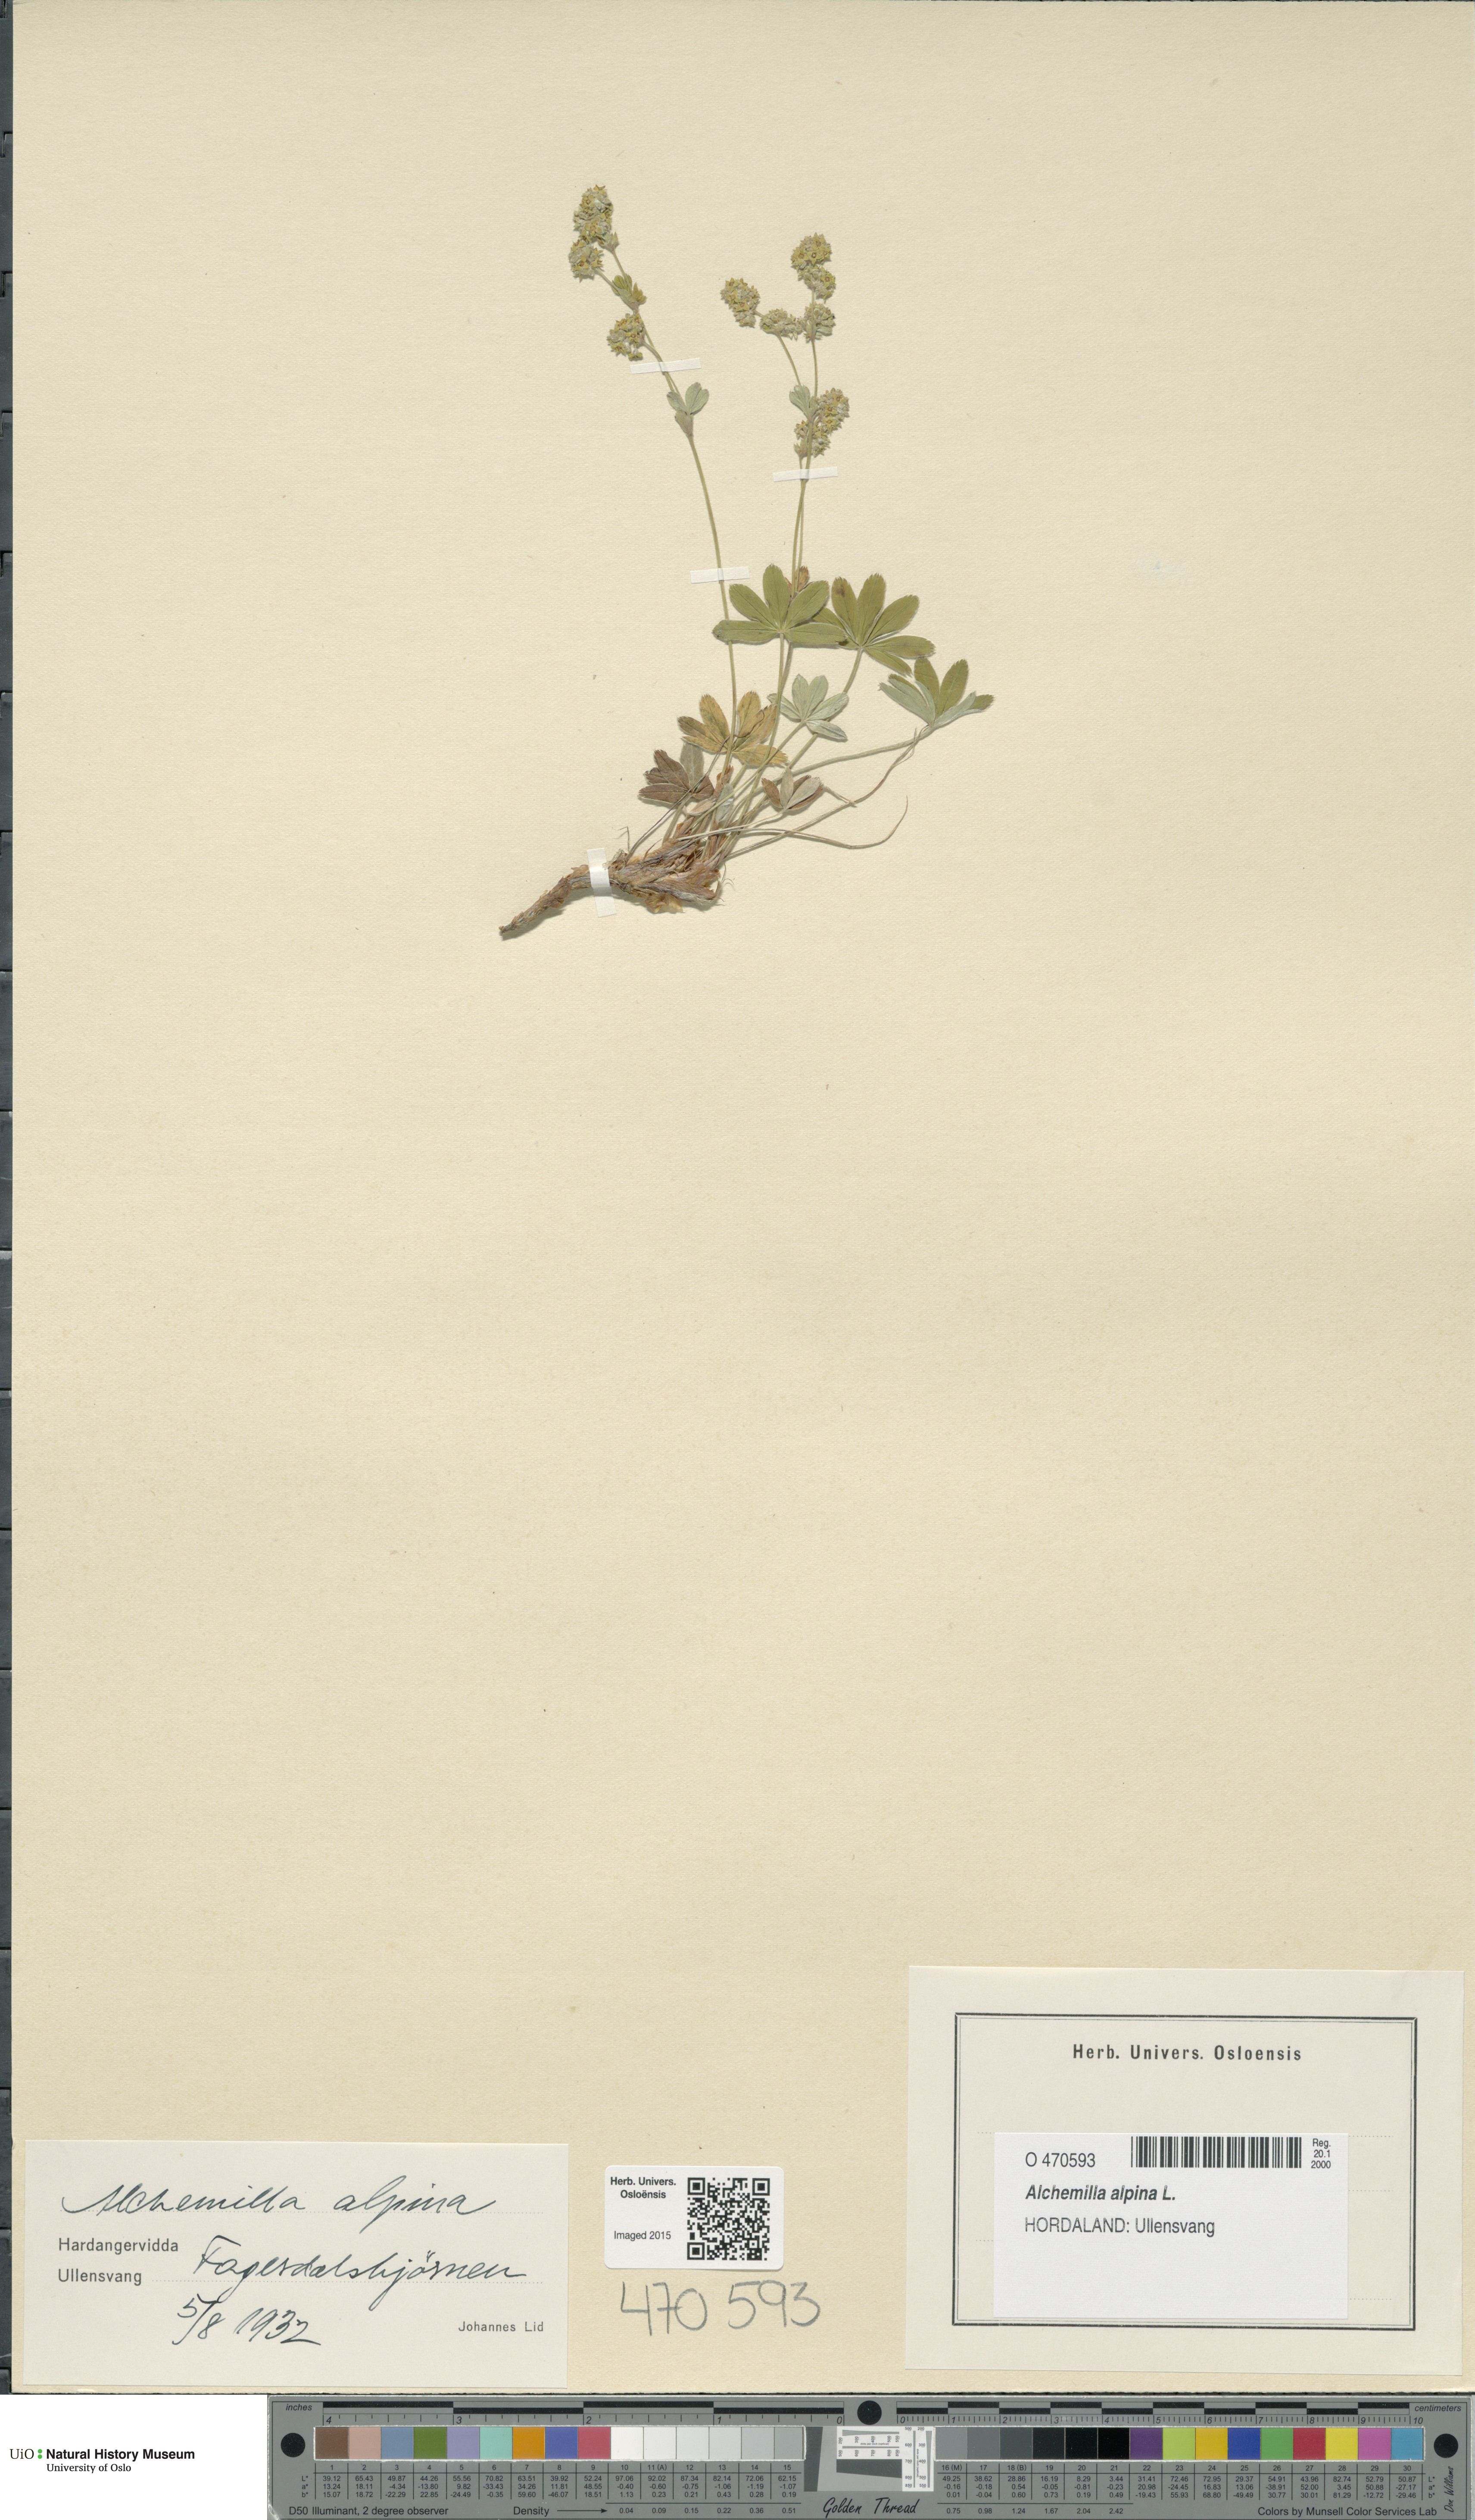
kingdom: Plantae
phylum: Tracheophyta
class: Magnoliopsida
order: Rosales
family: Rosaceae
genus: Alchemilla
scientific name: Alchemilla alpina
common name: Alpine lady's-mantle
